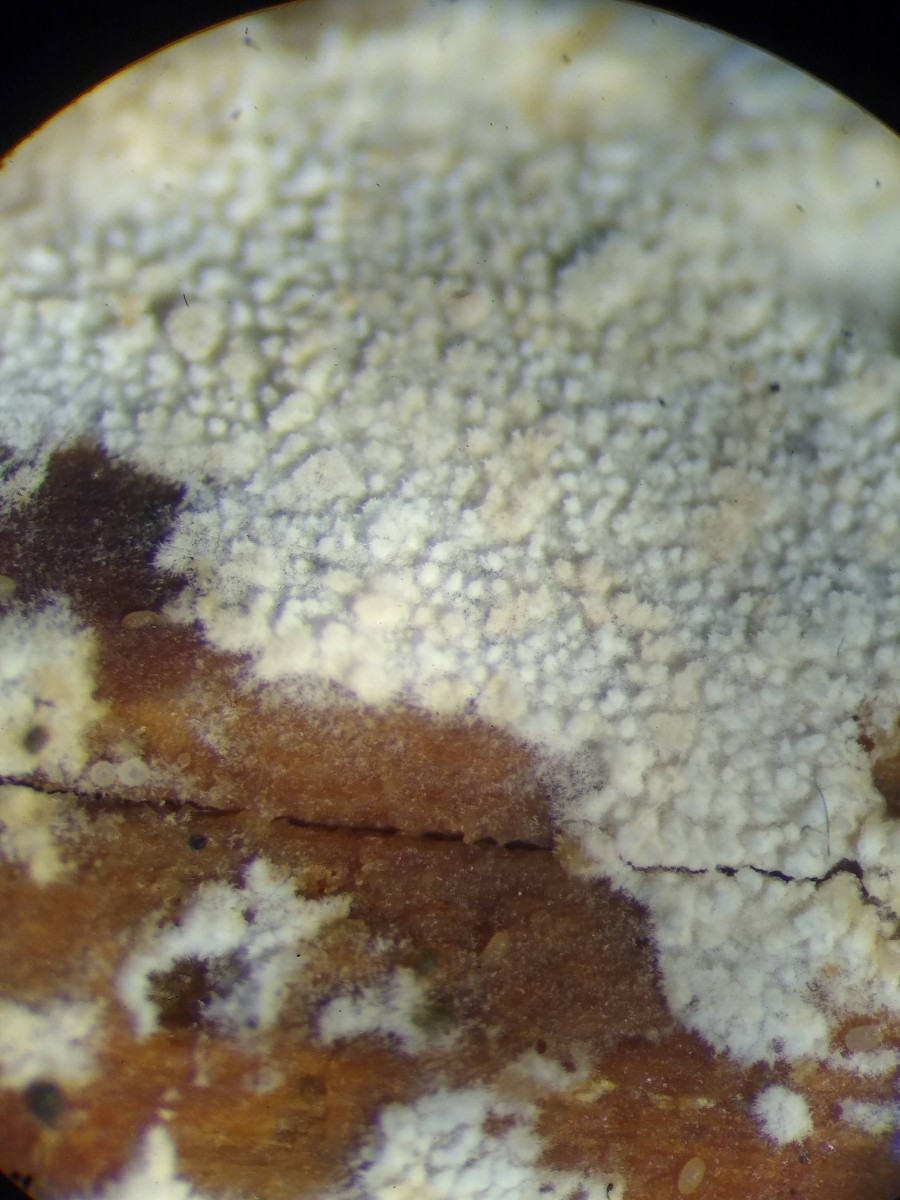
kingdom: Fungi
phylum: Basidiomycota
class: Agaricomycetes
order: Hymenochaetales
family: Schizoporaceae
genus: Xylodon
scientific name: Xylodon brevisetus
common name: tætvortet tandsvamp
